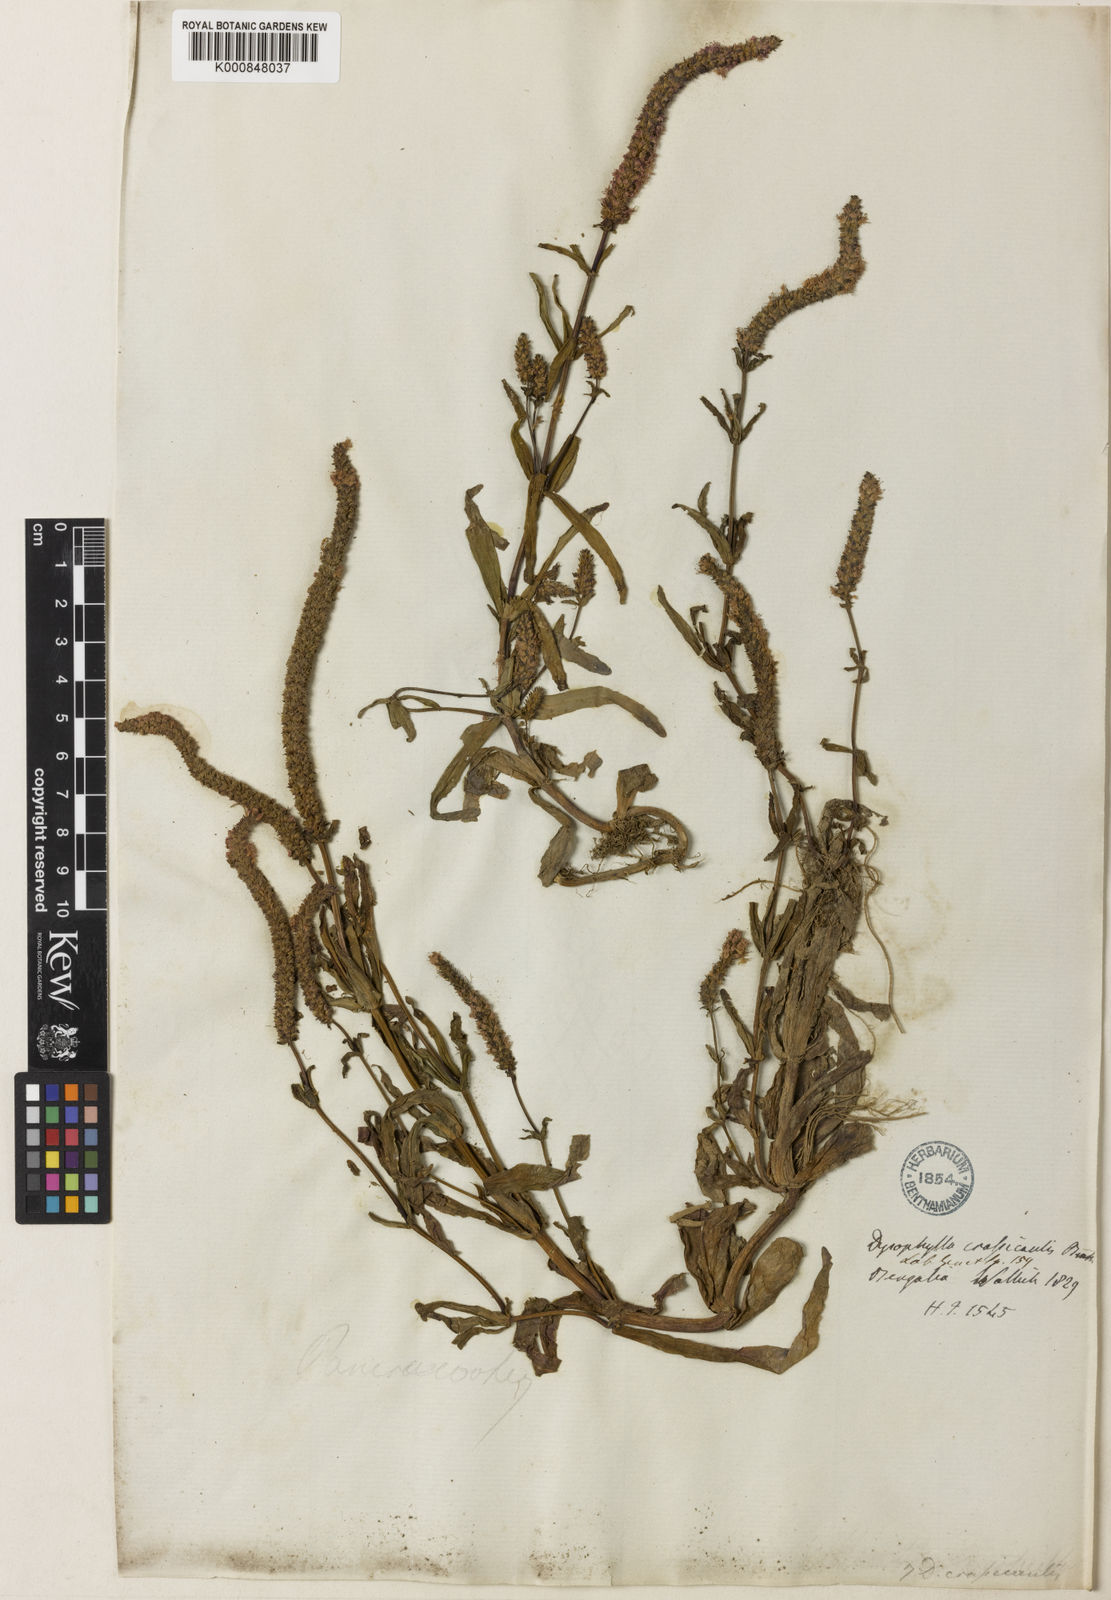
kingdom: Plantae
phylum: Tracheophyta
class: Magnoliopsida
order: Lamiales
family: Lamiaceae
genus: Pogostemon
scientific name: Pogostemon crassicaulis
